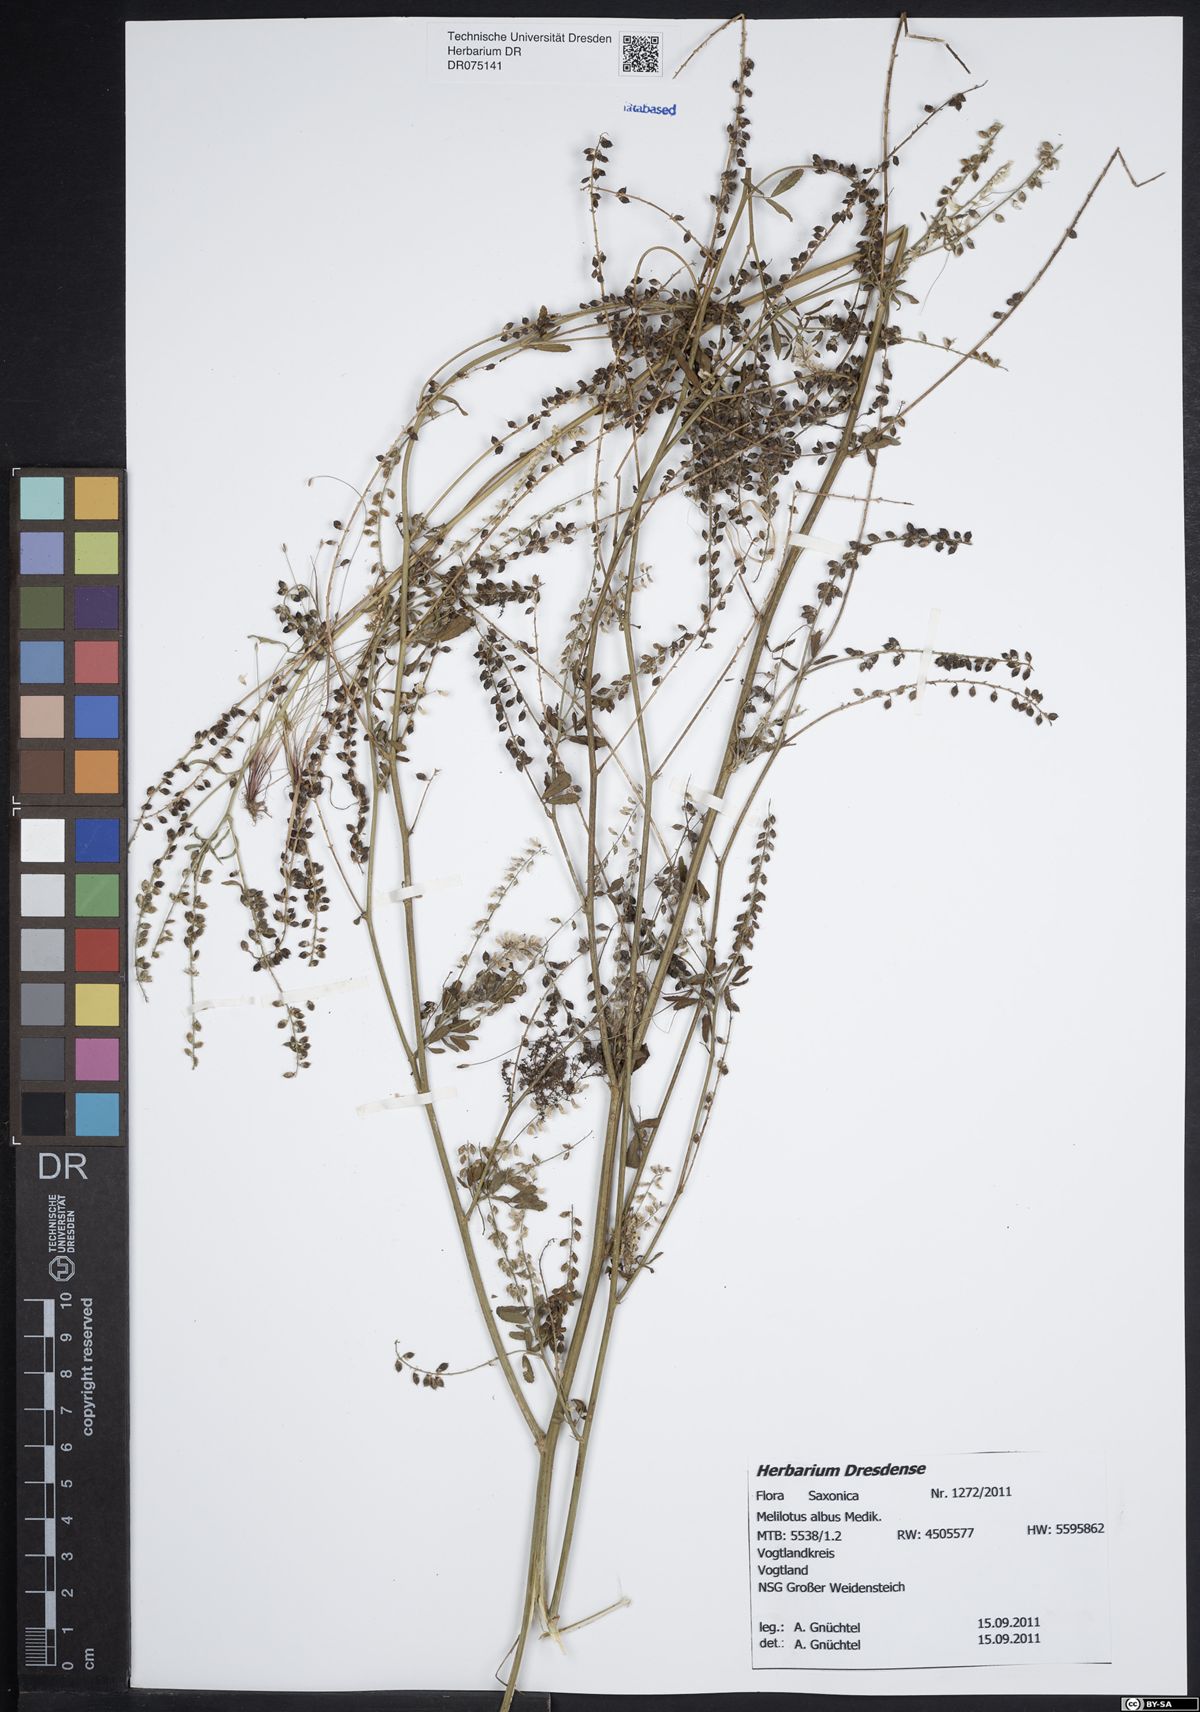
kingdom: Plantae
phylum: Tracheophyta
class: Magnoliopsida
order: Fabales
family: Fabaceae
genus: Melilotus
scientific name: Melilotus albus
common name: White melilot
